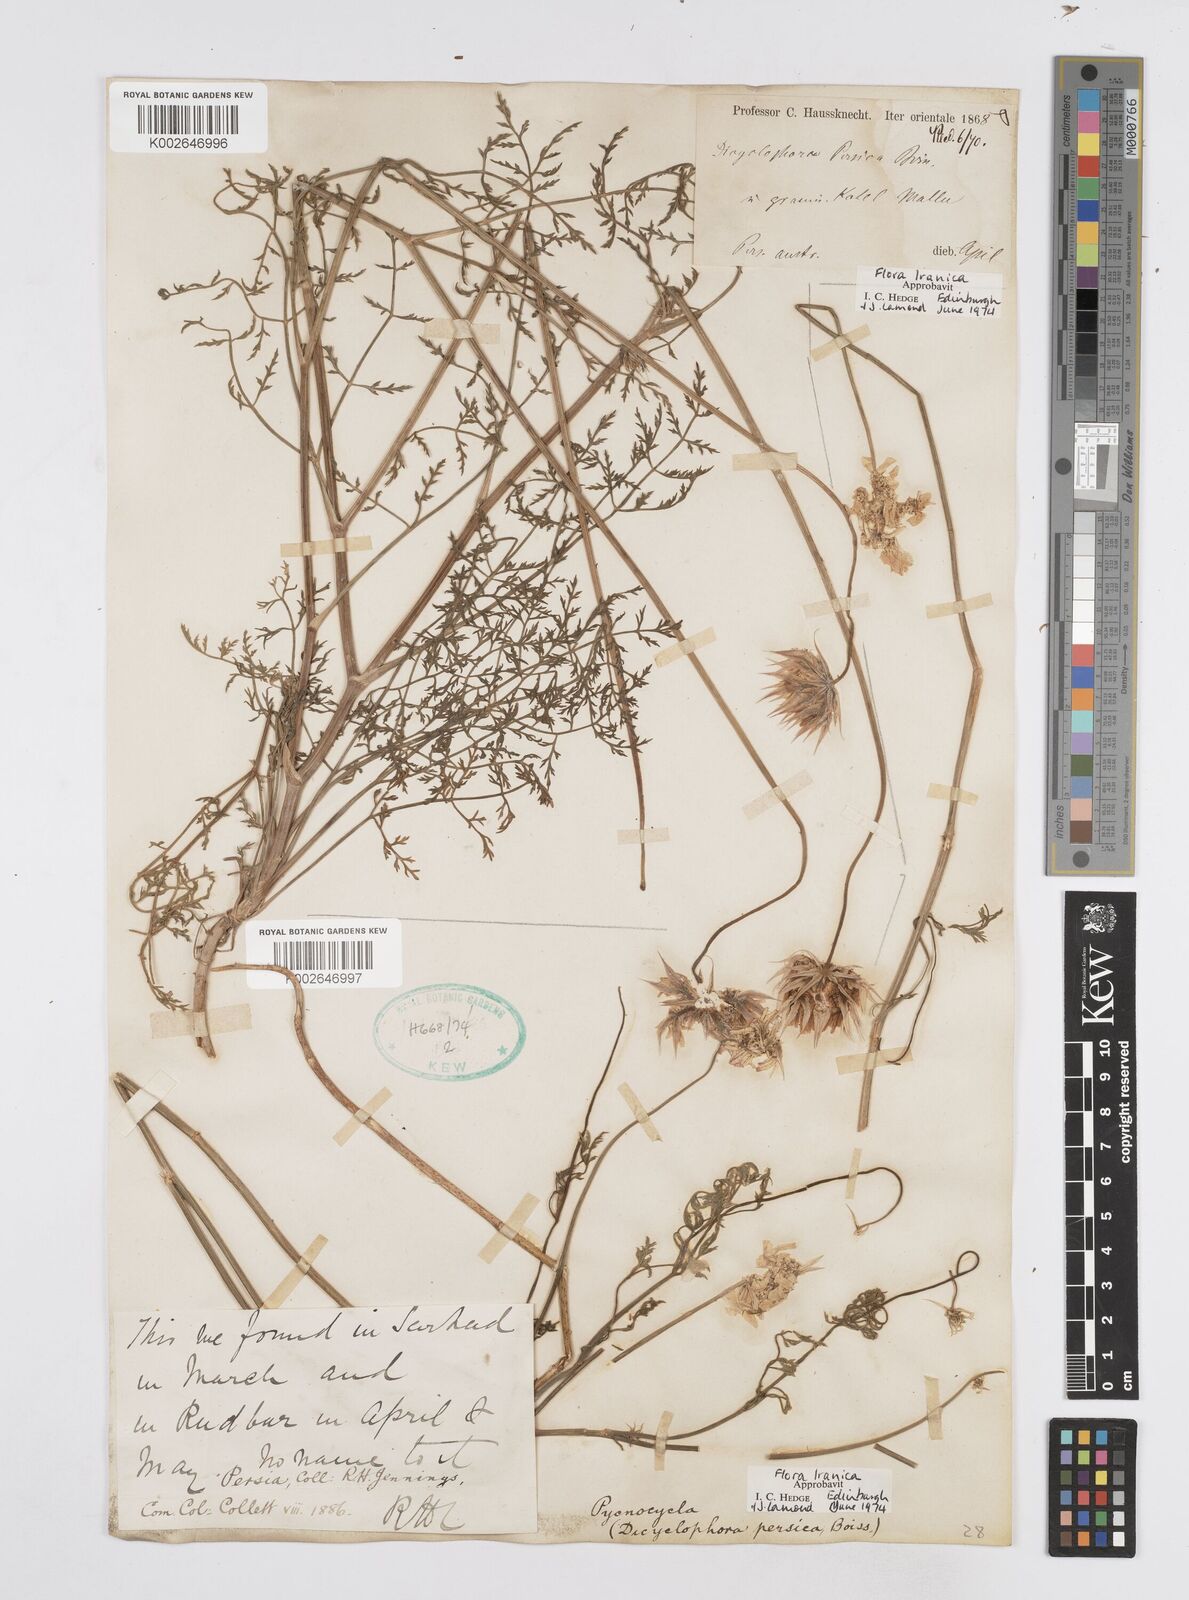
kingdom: Plantae
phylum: Tracheophyta
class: Magnoliopsida
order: Apiales
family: Apiaceae
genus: Dicyclophora
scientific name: Dicyclophora persica
